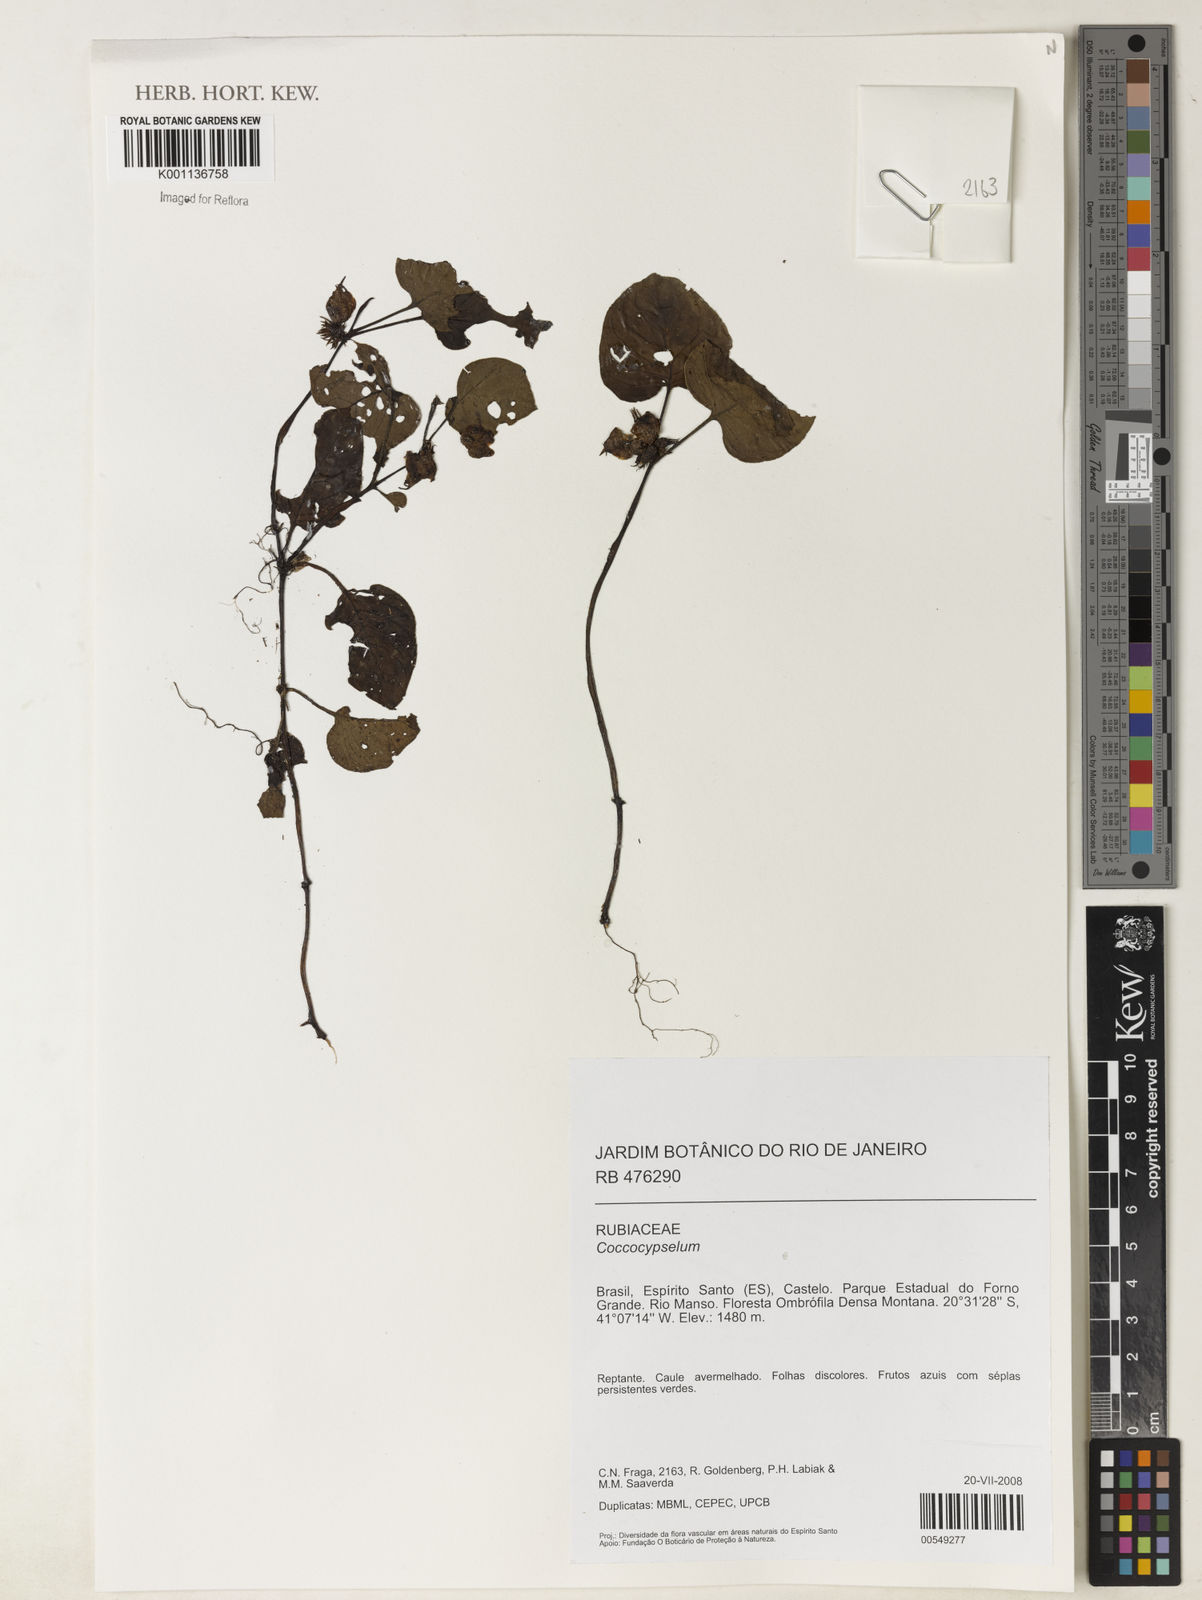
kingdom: Plantae
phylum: Tracheophyta
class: Magnoliopsida
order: Gentianales
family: Rubiaceae
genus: Coccocypselum
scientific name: Coccocypselum
